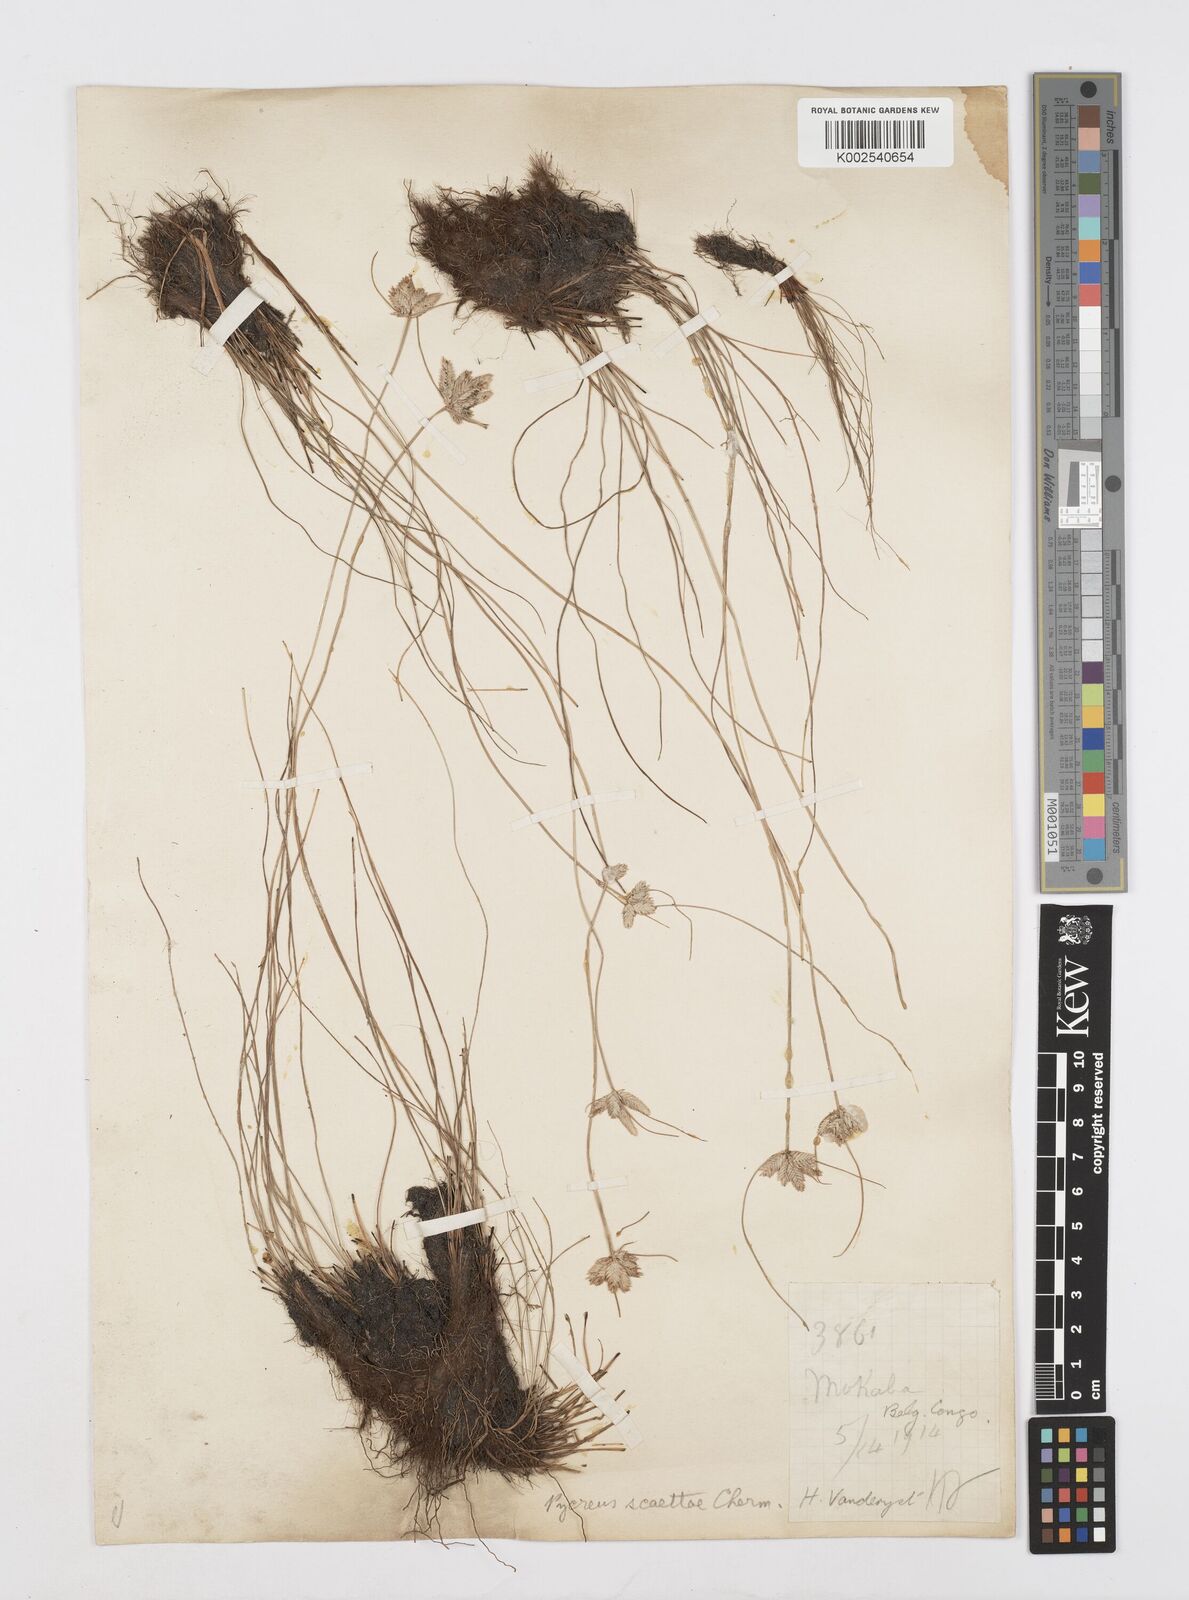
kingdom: Plantae
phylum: Tracheophyta
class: Liliopsida
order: Poales
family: Cyperaceae
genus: Cyperus
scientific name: Cyperus scaettae
